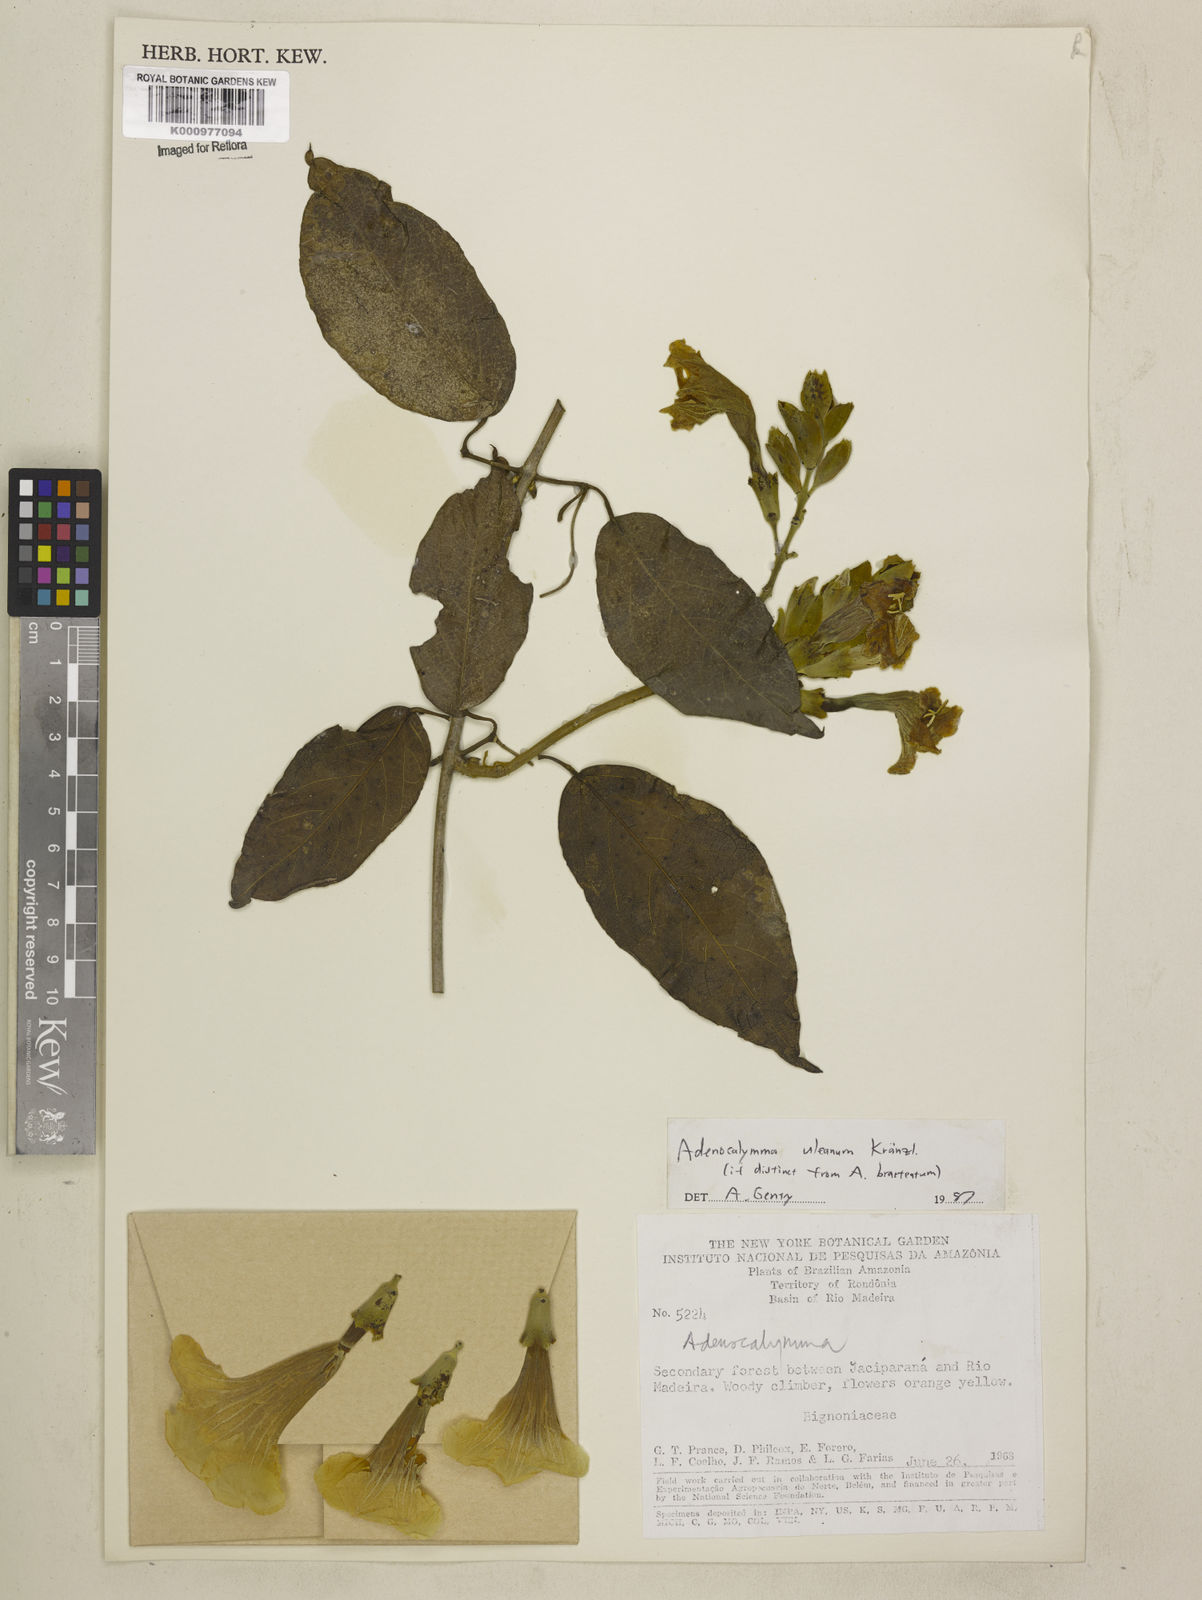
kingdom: Plantae
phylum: Tracheophyta
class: Magnoliopsida
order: Lamiales
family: Bignoniaceae
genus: Adenocalymma
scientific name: Adenocalymma uleanum
